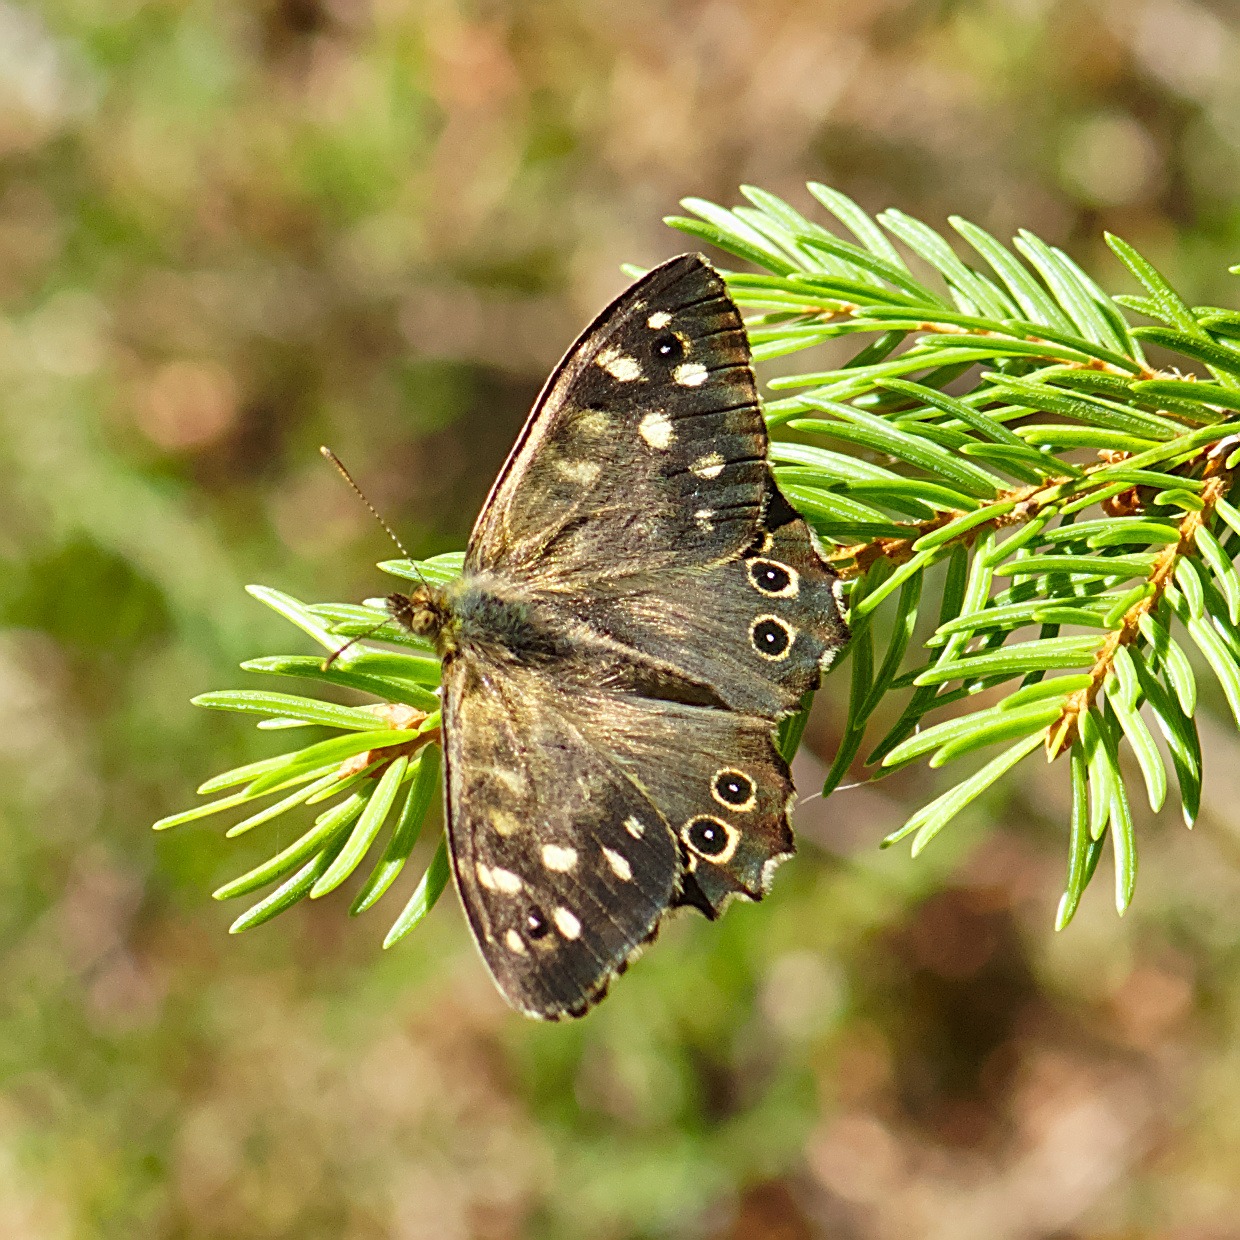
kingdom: Animalia
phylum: Arthropoda
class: Insecta
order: Lepidoptera
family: Nymphalidae
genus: Pararge
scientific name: Pararge aegeria
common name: Skovrandøje
